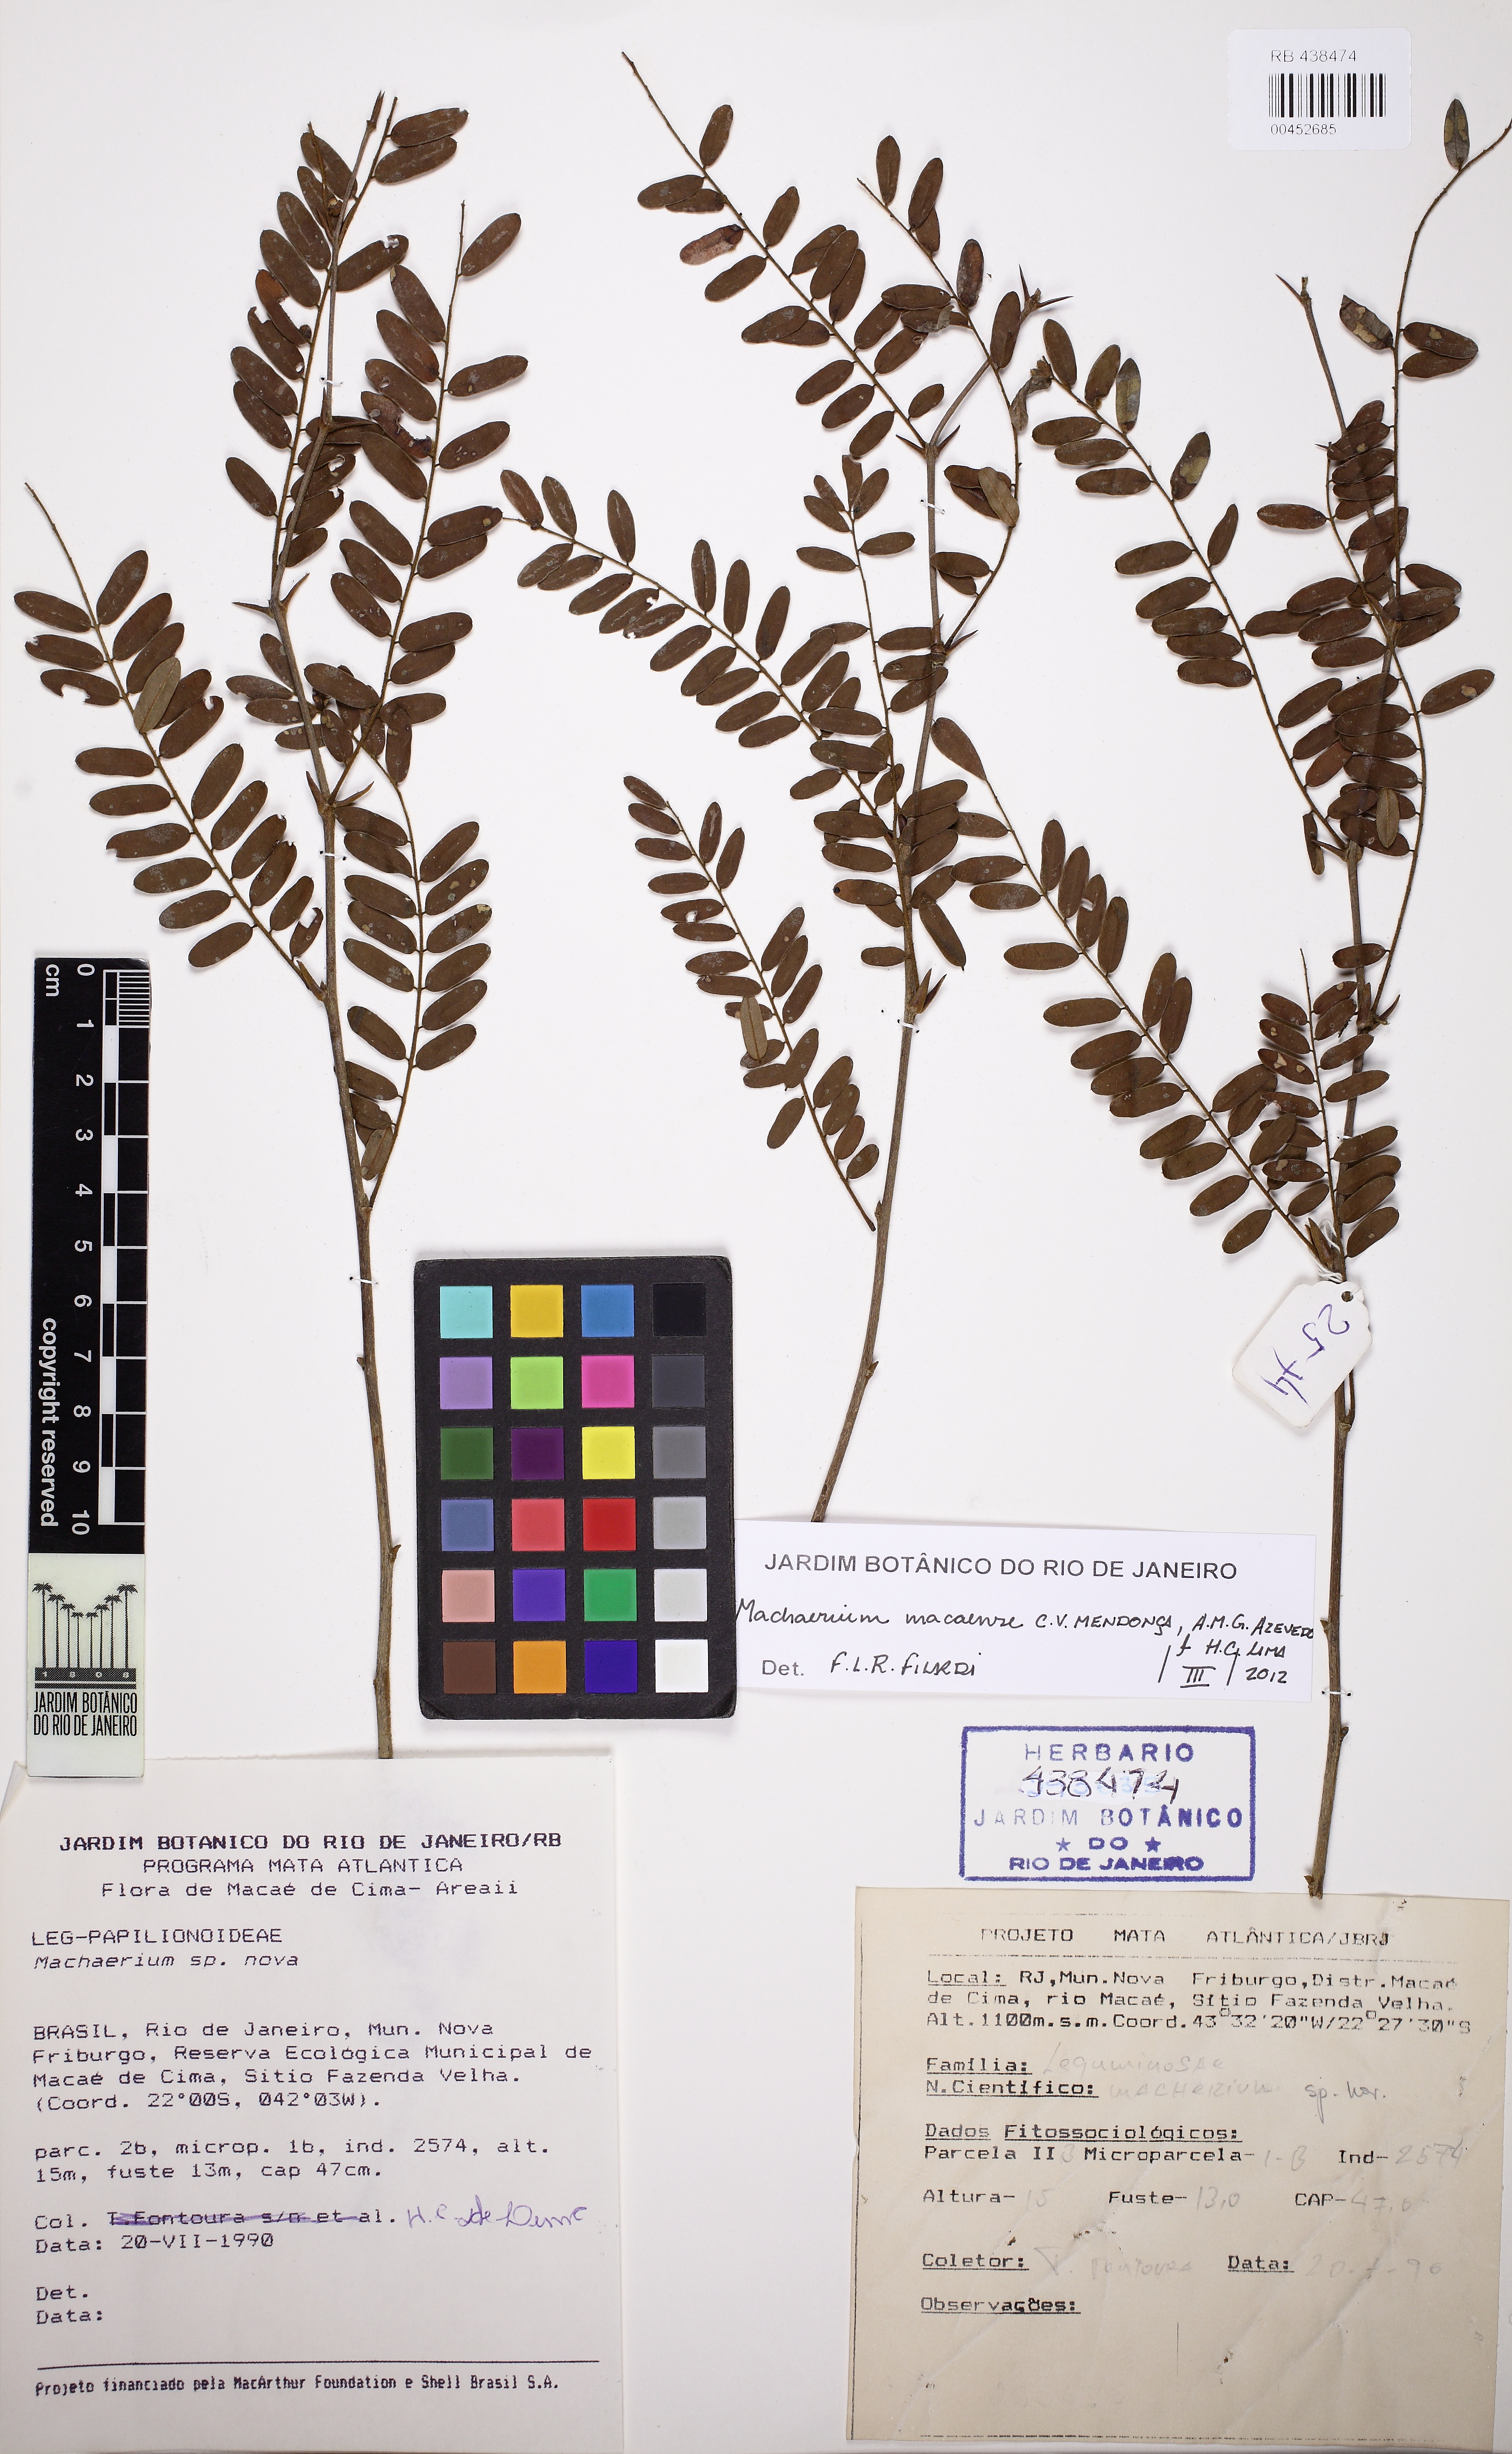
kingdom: Plantae
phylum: Tracheophyta
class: Magnoliopsida
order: Fabales
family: Fabaceae
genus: Machaerium
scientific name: Machaerium macaense
